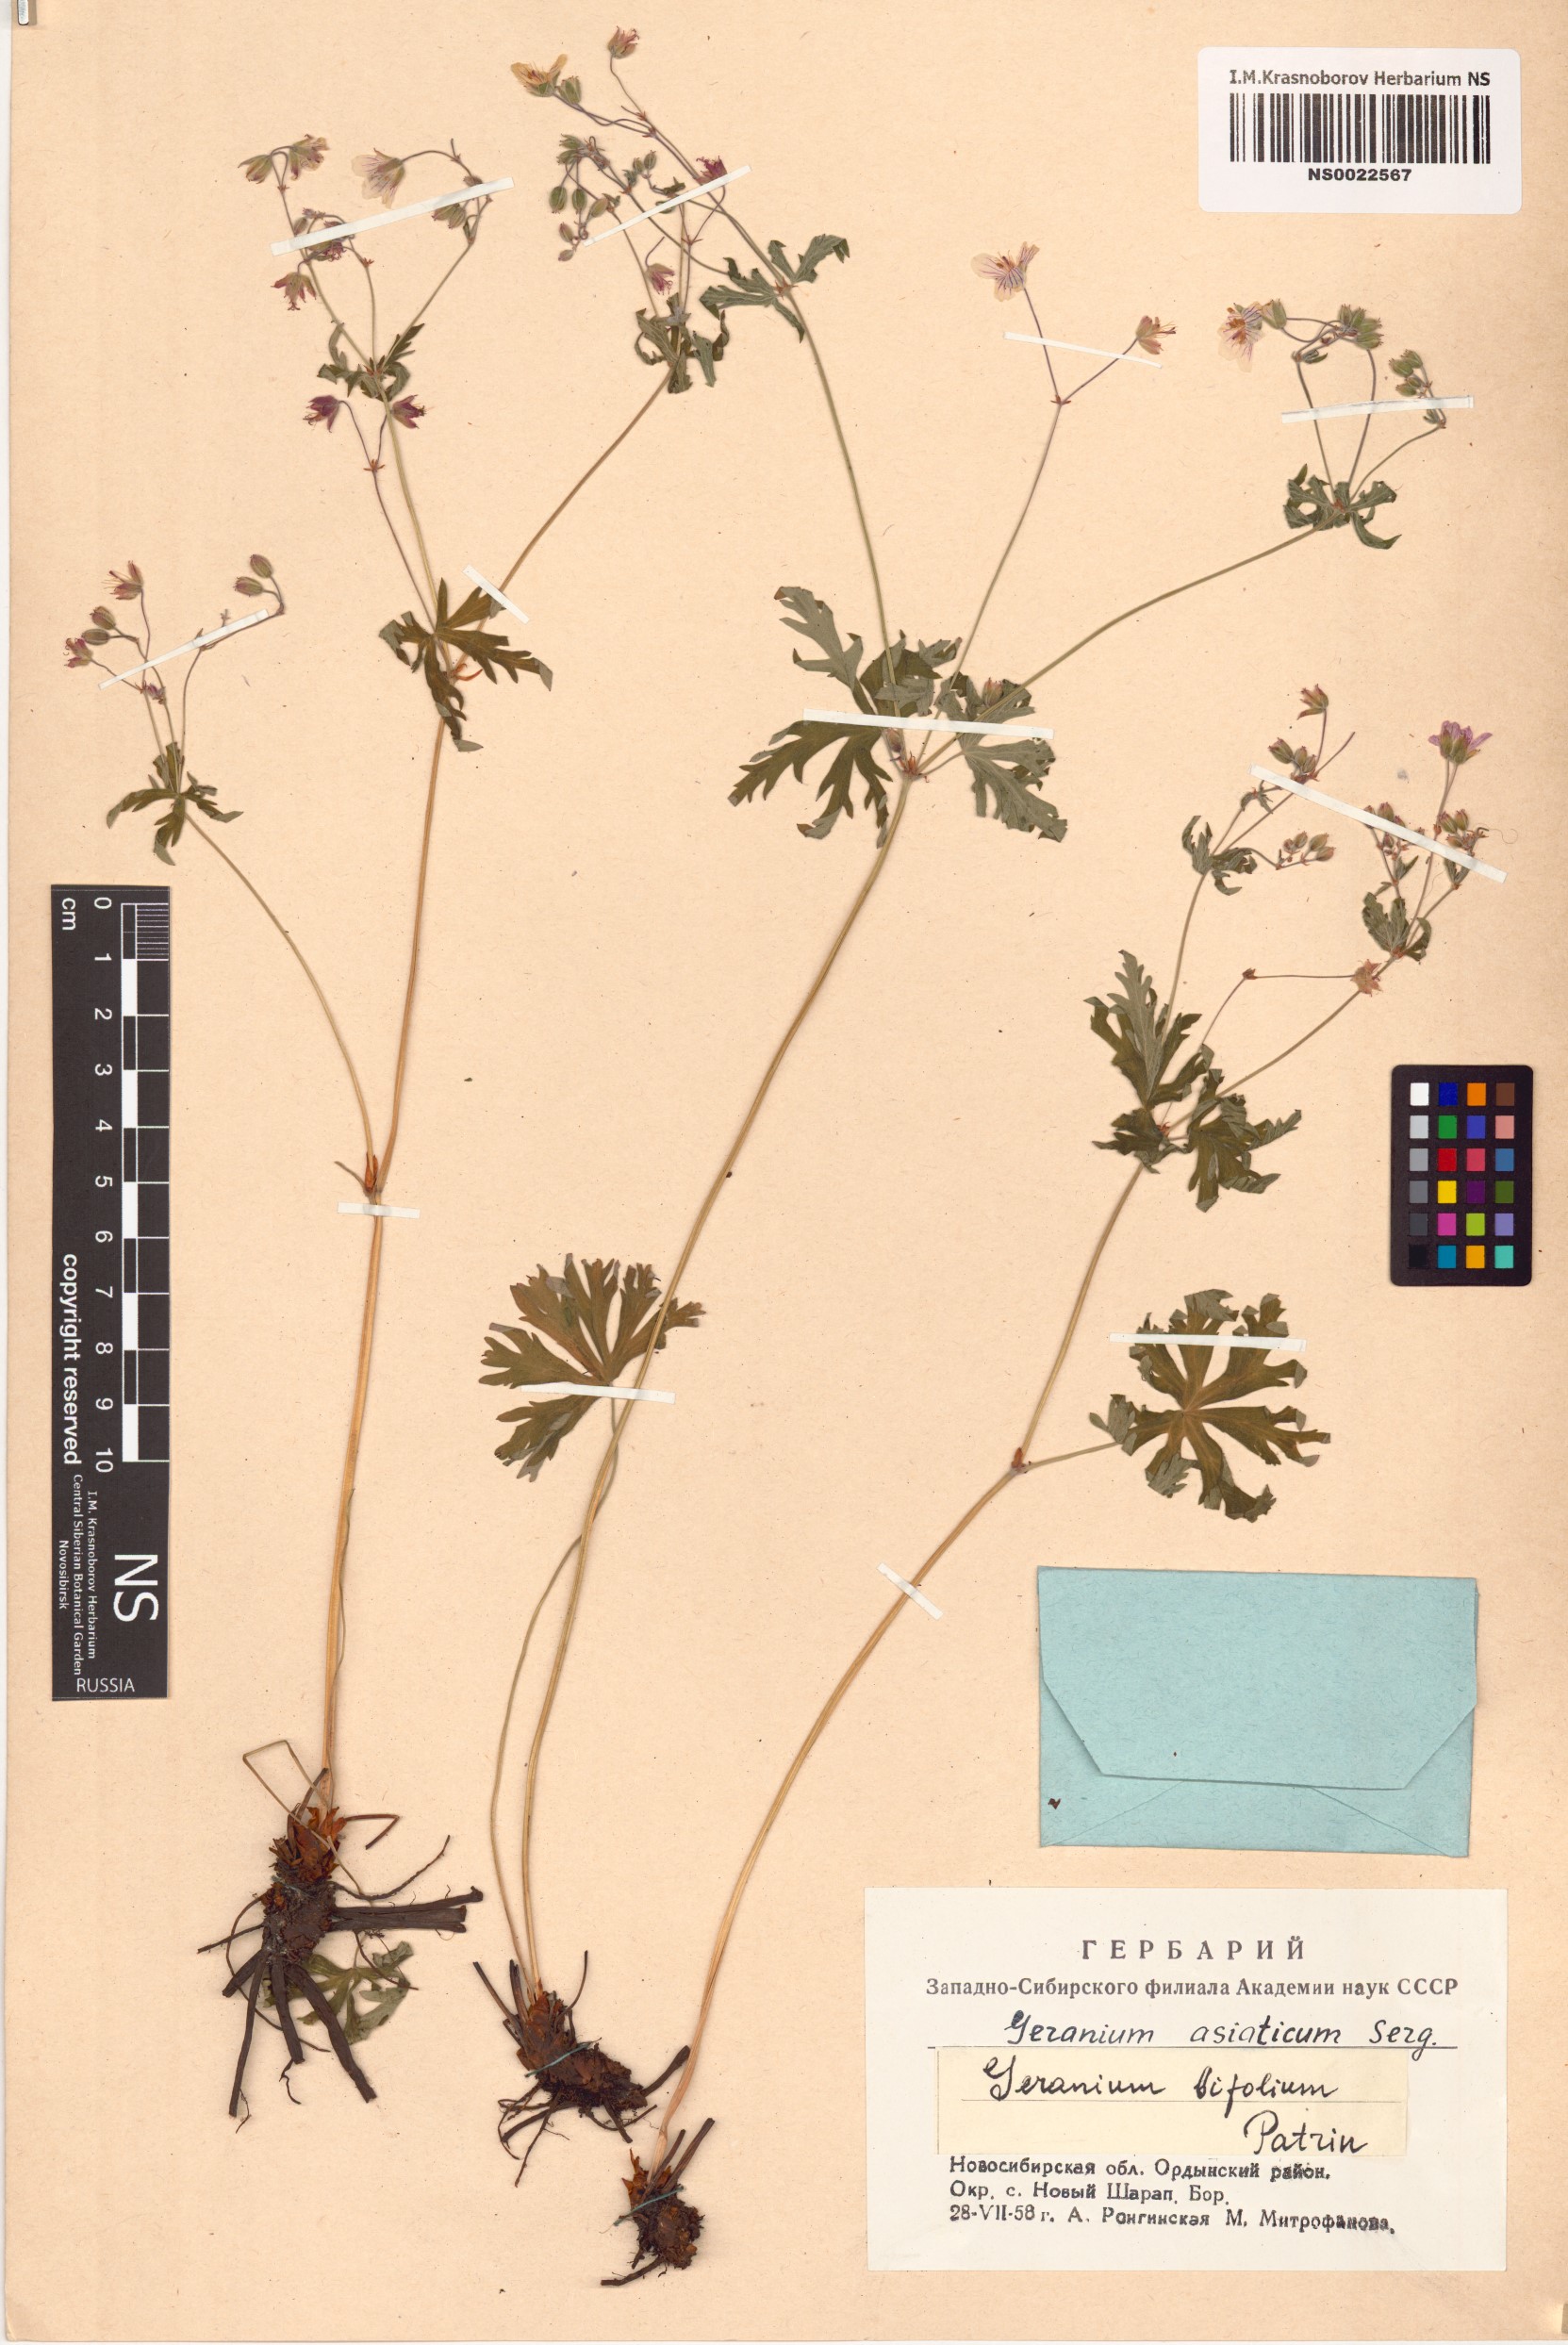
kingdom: Plantae
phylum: Tracheophyta
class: Magnoliopsida
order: Geraniales
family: Geraniaceae
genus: Geranium
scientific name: Geranium pseudosibiricum
